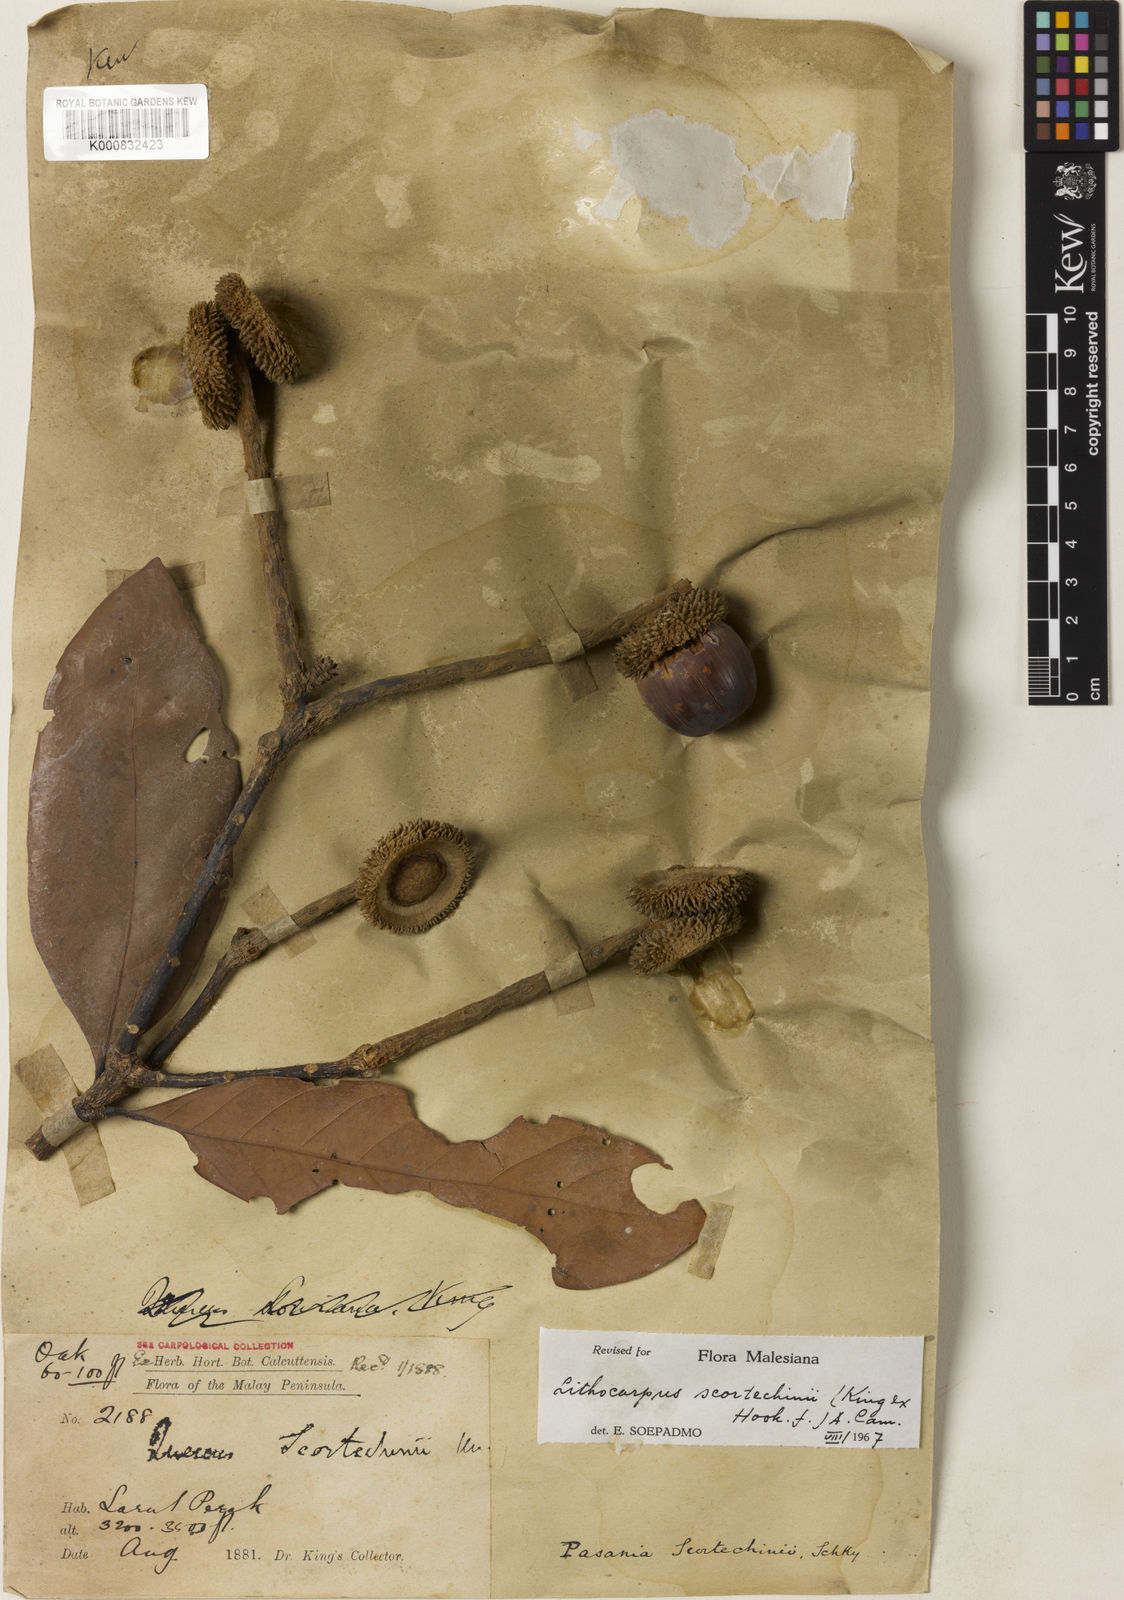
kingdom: Plantae
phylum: Tracheophyta
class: Magnoliopsida
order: Fagales
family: Fagaceae
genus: Lithocarpus
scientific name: Lithocarpus scortechinii
